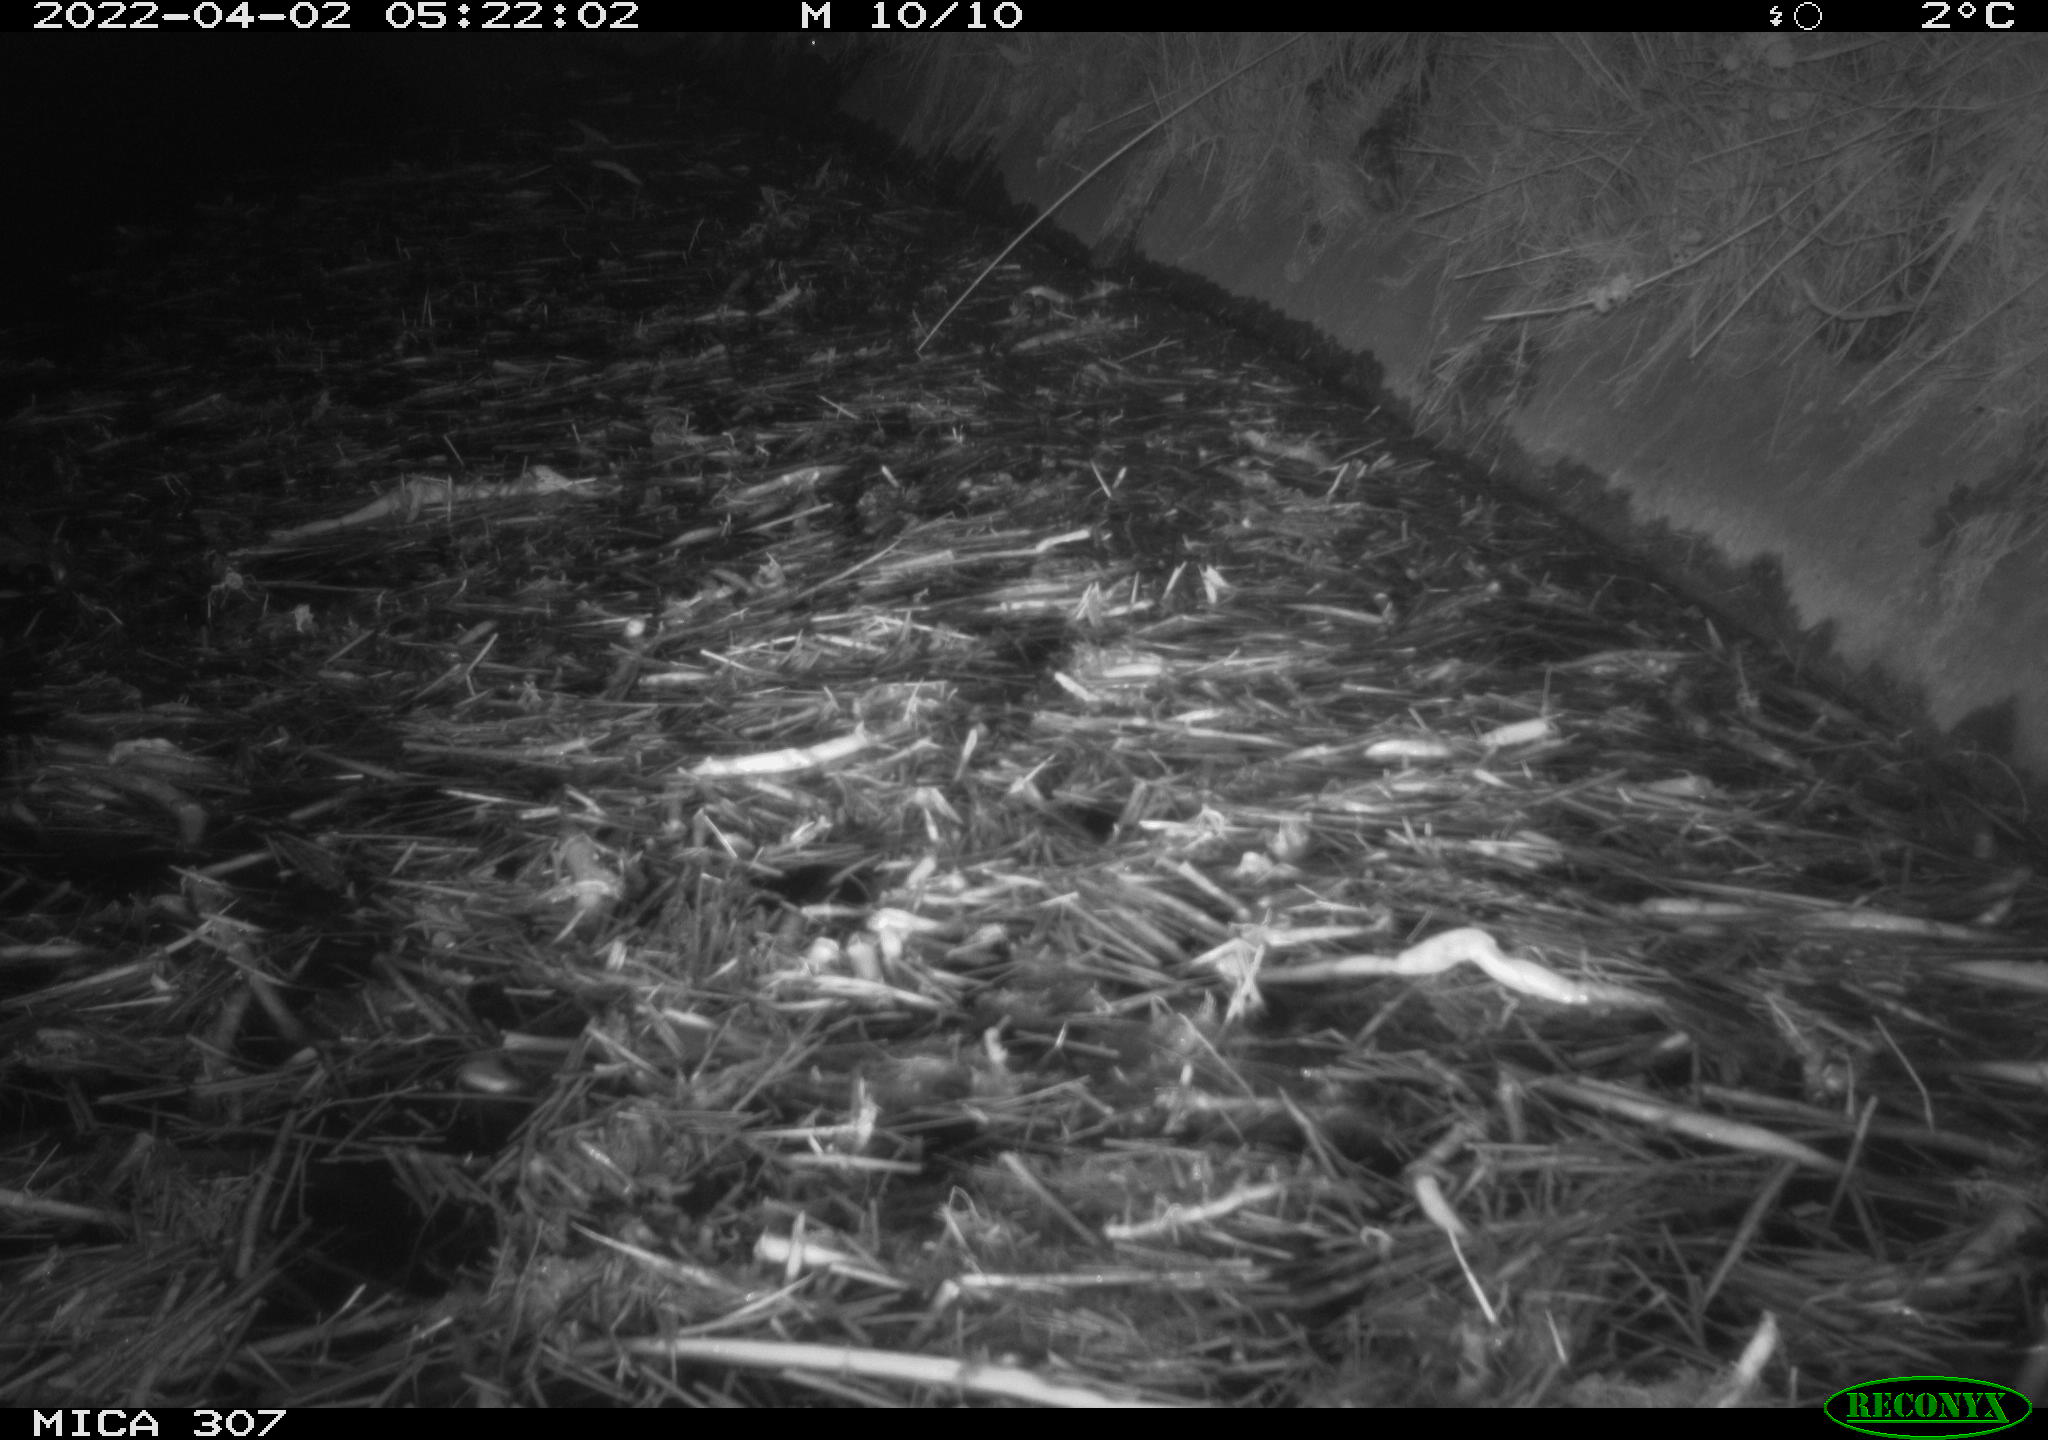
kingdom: Animalia
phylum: Chordata
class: Aves
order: Anseriformes
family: Anatidae
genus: Anas
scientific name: Anas platyrhynchos
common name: Mallard
